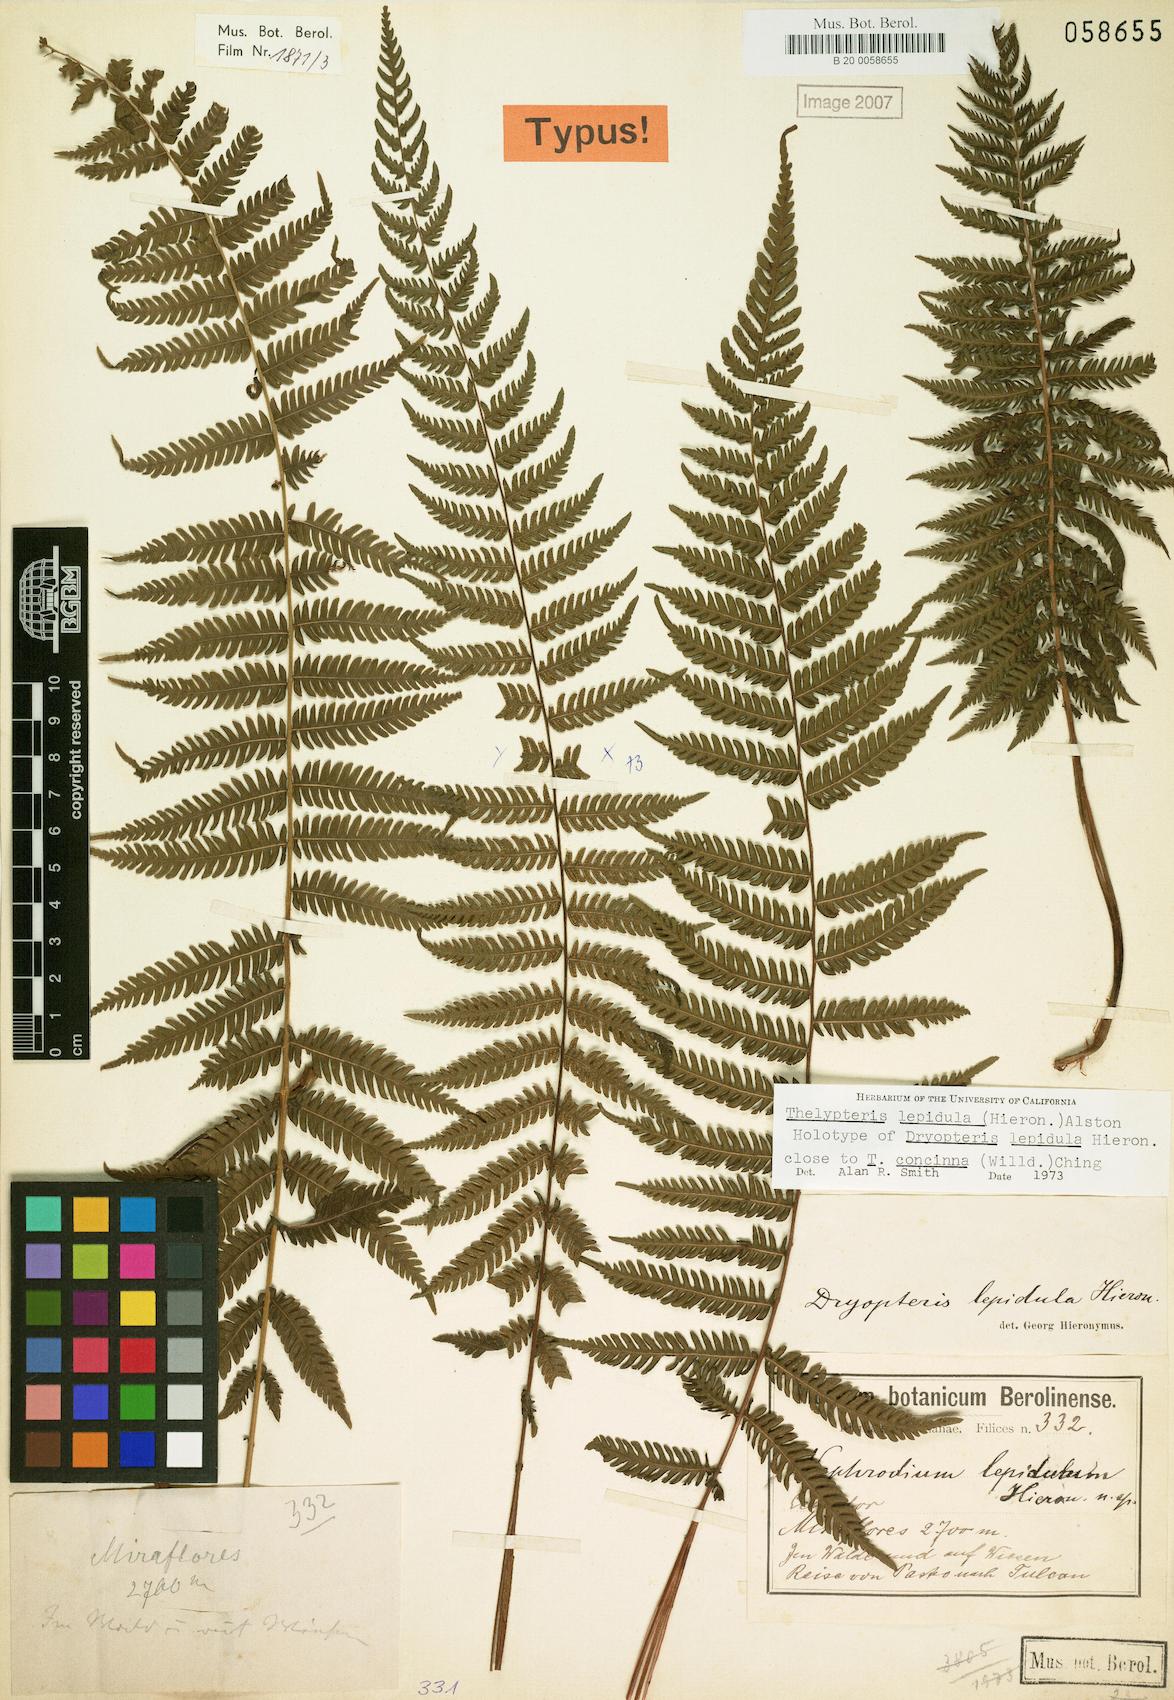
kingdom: Plantae
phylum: Tracheophyta
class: Polypodiopsida
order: Polypodiales
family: Thelypteridaceae
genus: Amauropelta
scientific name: Amauropelta lepidula
